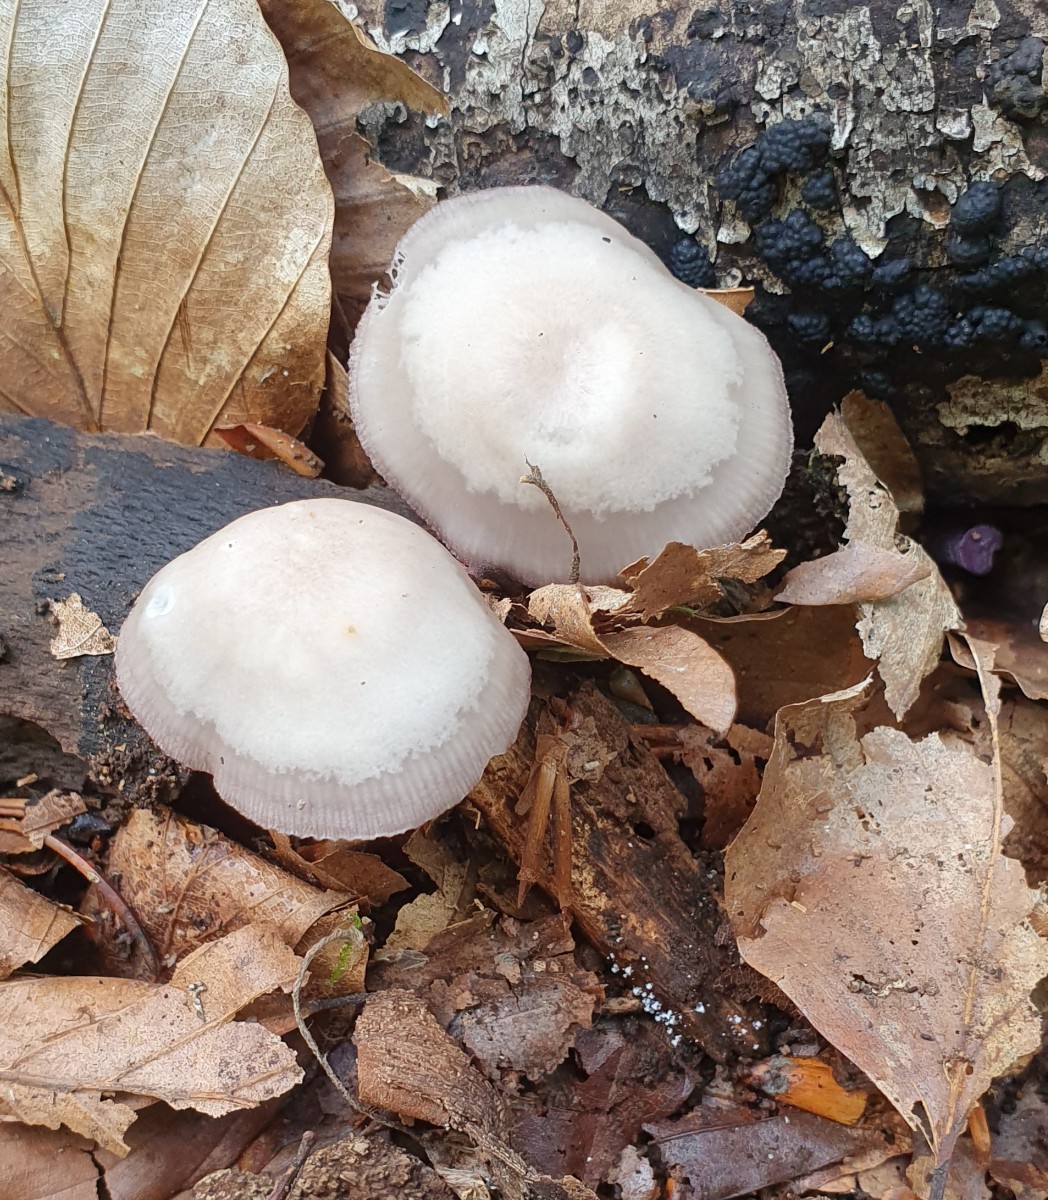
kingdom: Fungi
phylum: Basidiomycota
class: Agaricomycetes
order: Agaricales
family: Mycenaceae
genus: Mycena
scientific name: Mycena pelianthina
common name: mørkbladet huesvamp
